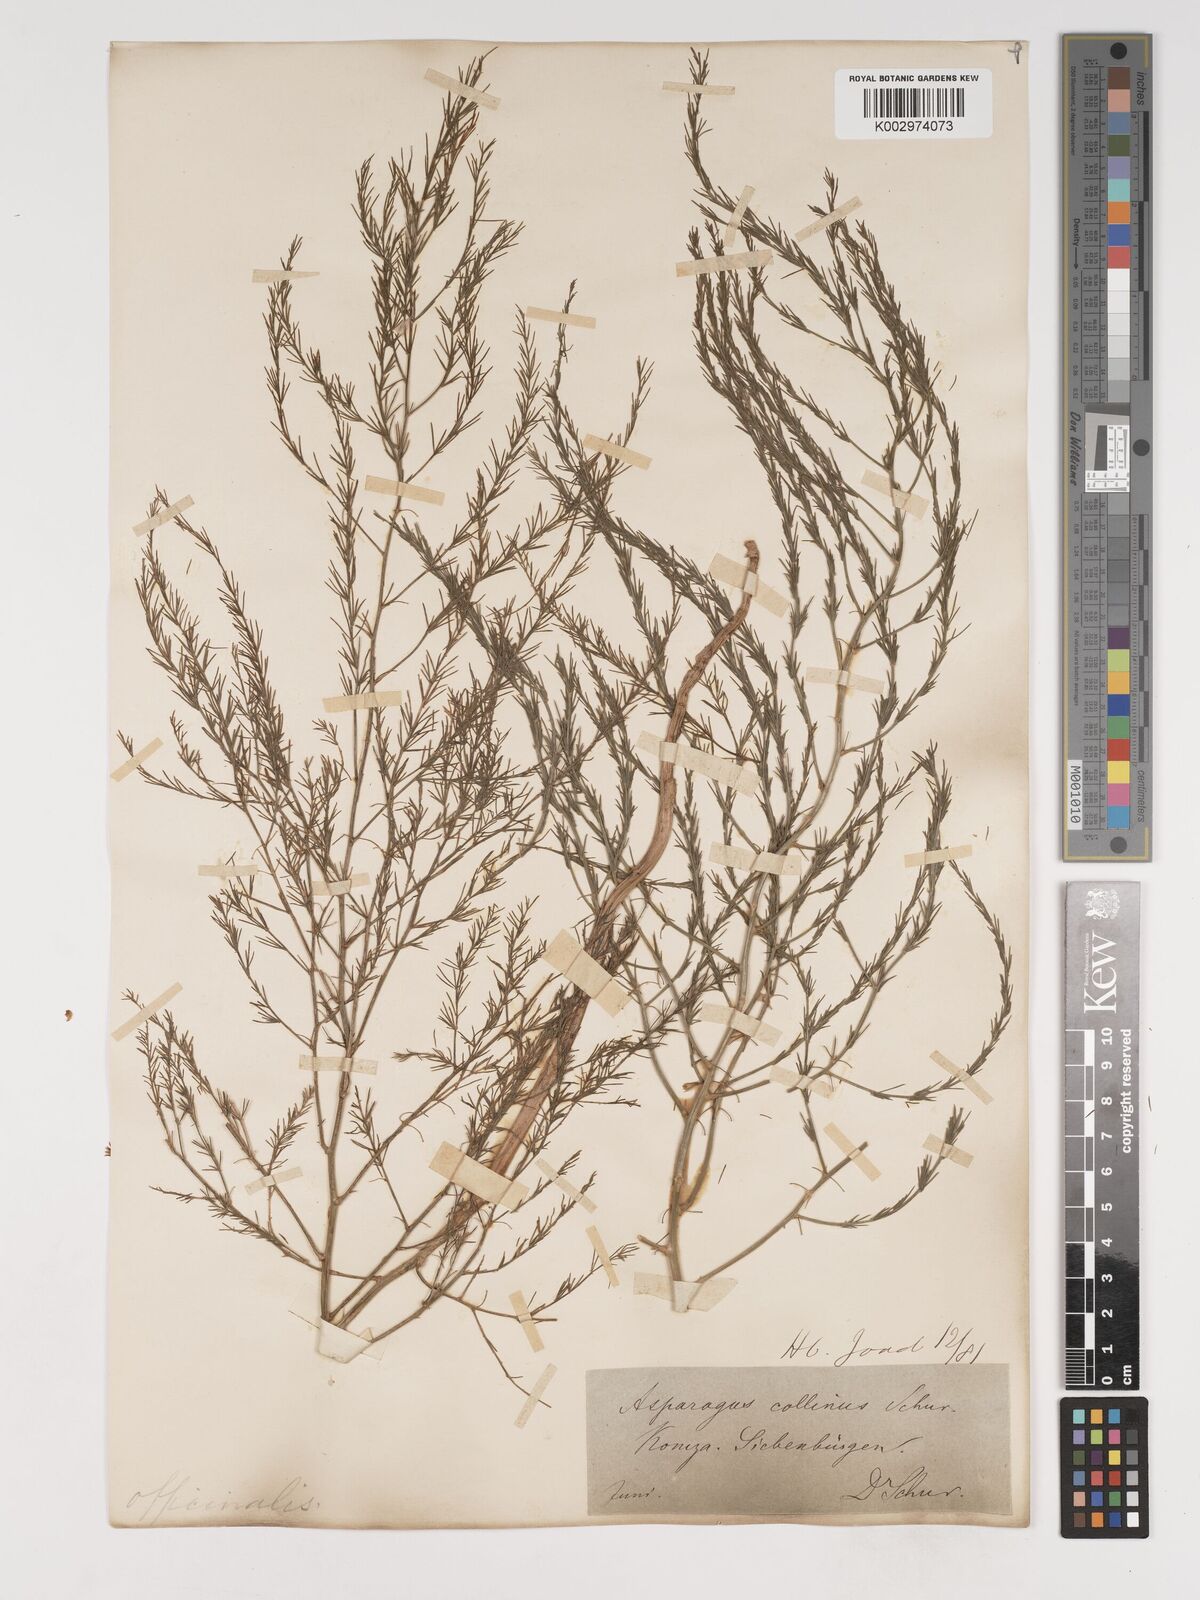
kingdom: Plantae
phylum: Tracheophyta
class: Liliopsida
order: Asparagales
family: Asparagaceae
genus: Asparagus
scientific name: Asparagus officinalis
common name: Garden asparagus
